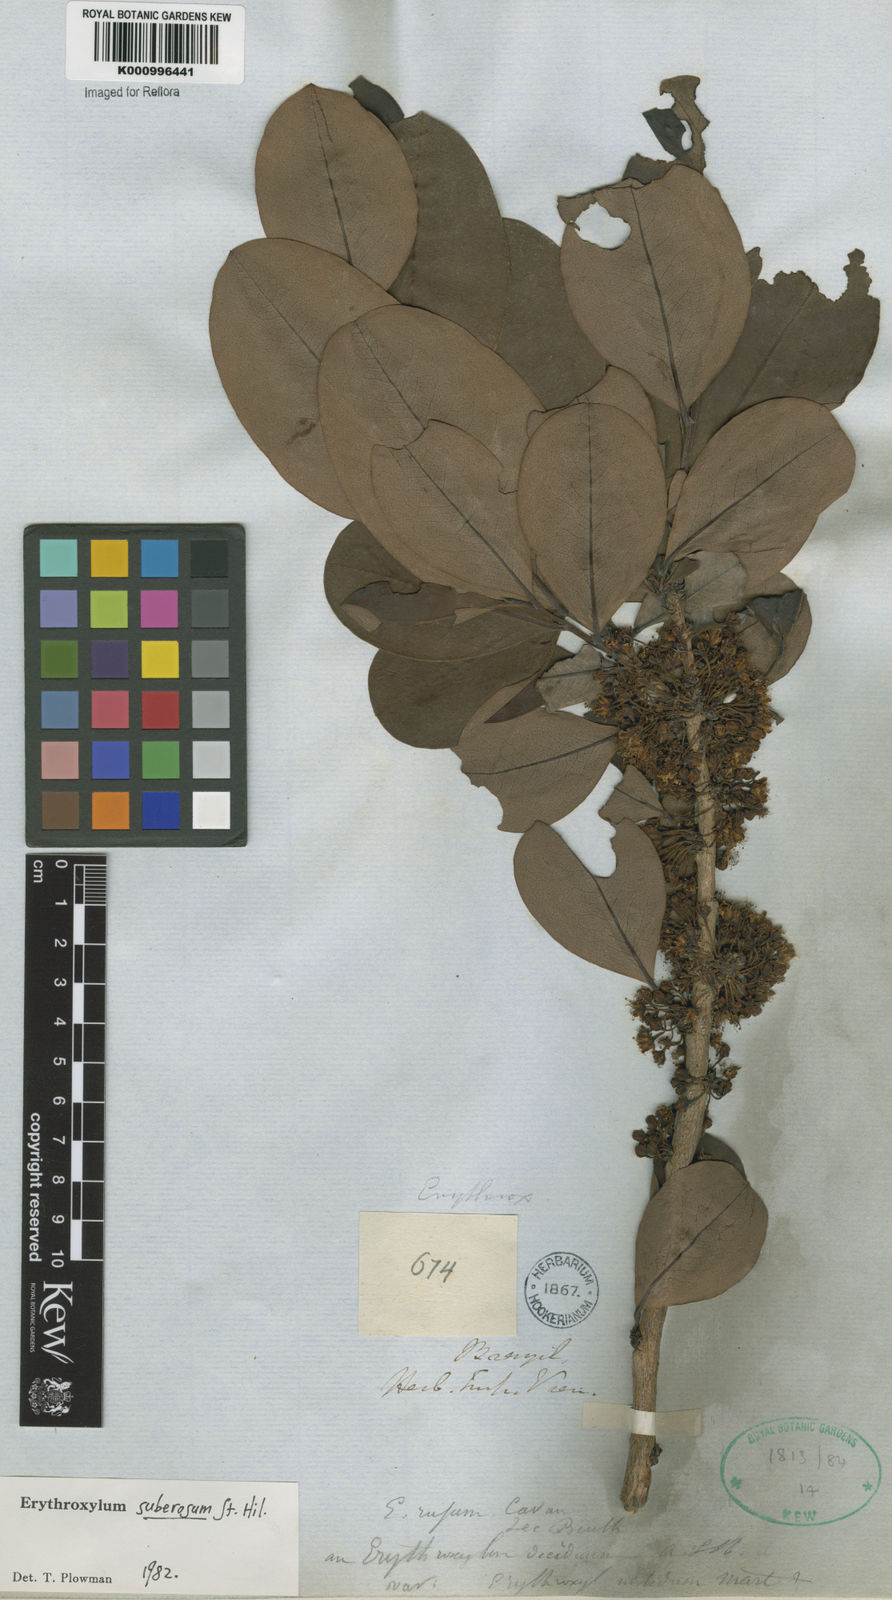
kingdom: Plantae
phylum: Tracheophyta
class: Magnoliopsida
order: Malpighiales
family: Erythroxylaceae
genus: Erythroxylum
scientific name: Erythroxylum suberosum
